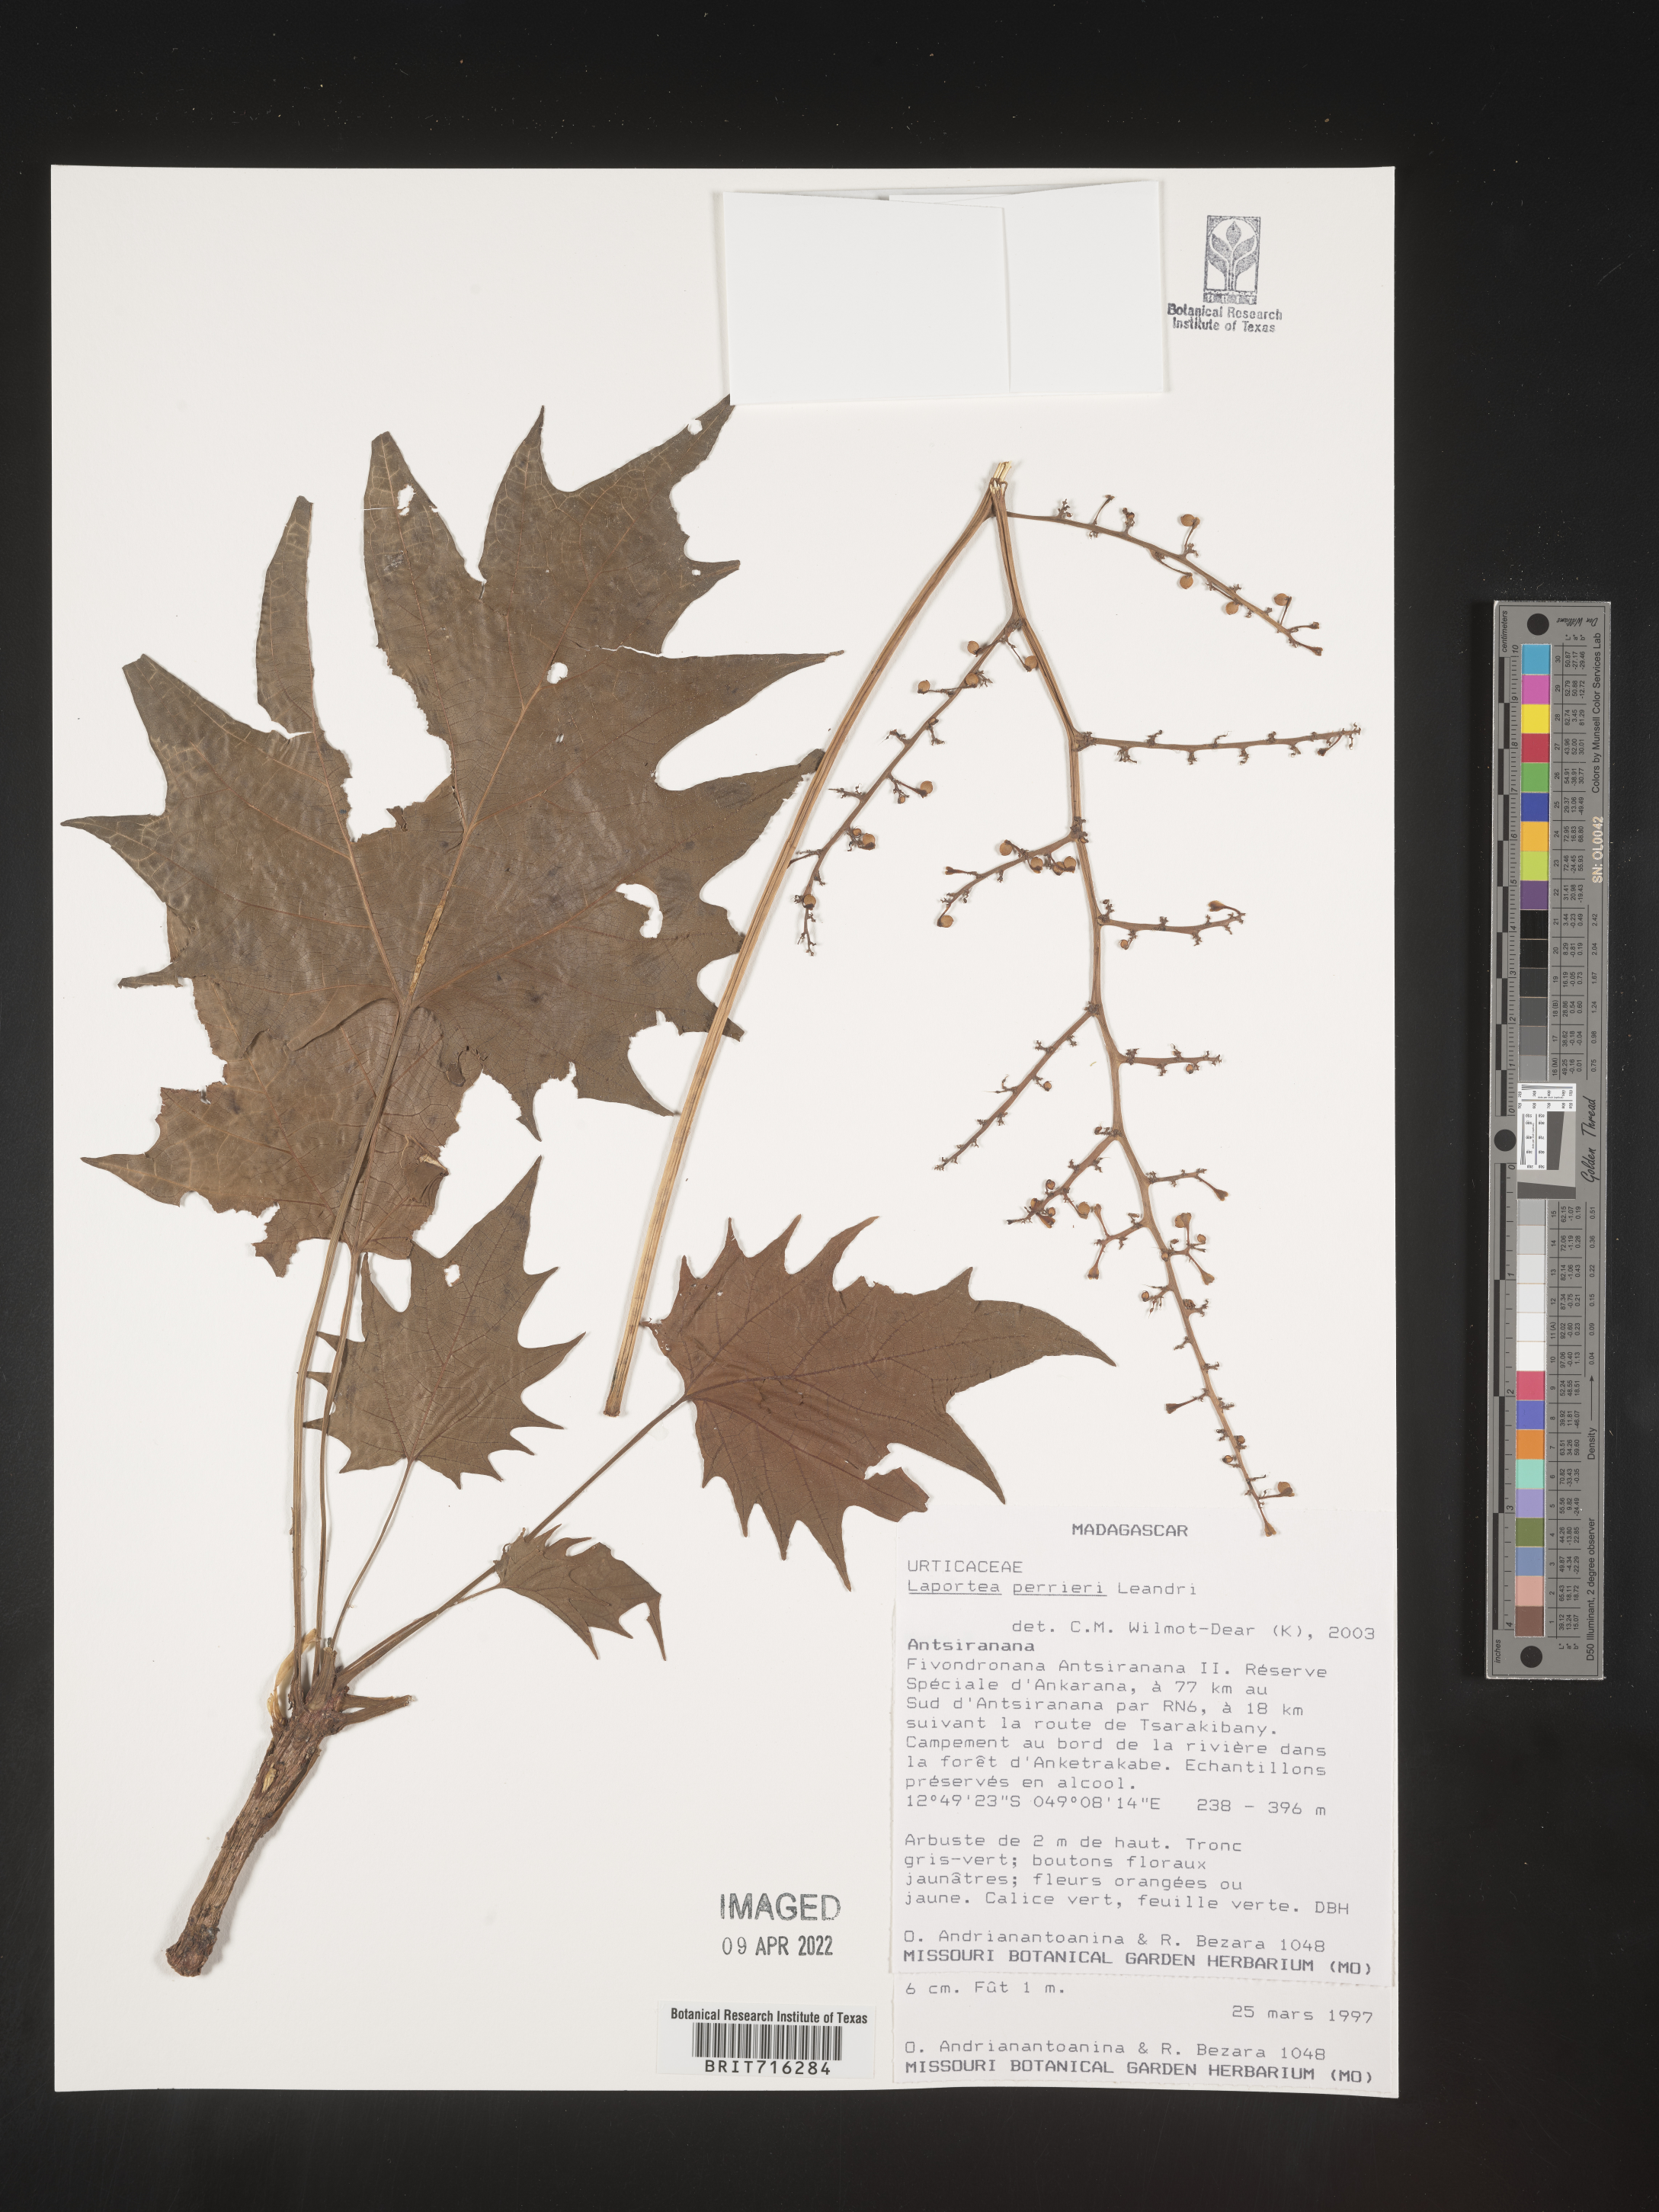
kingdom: Plantae
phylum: Tracheophyta
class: Magnoliopsida
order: Rosales
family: Urticaceae
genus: Laportea
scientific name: Laportea
